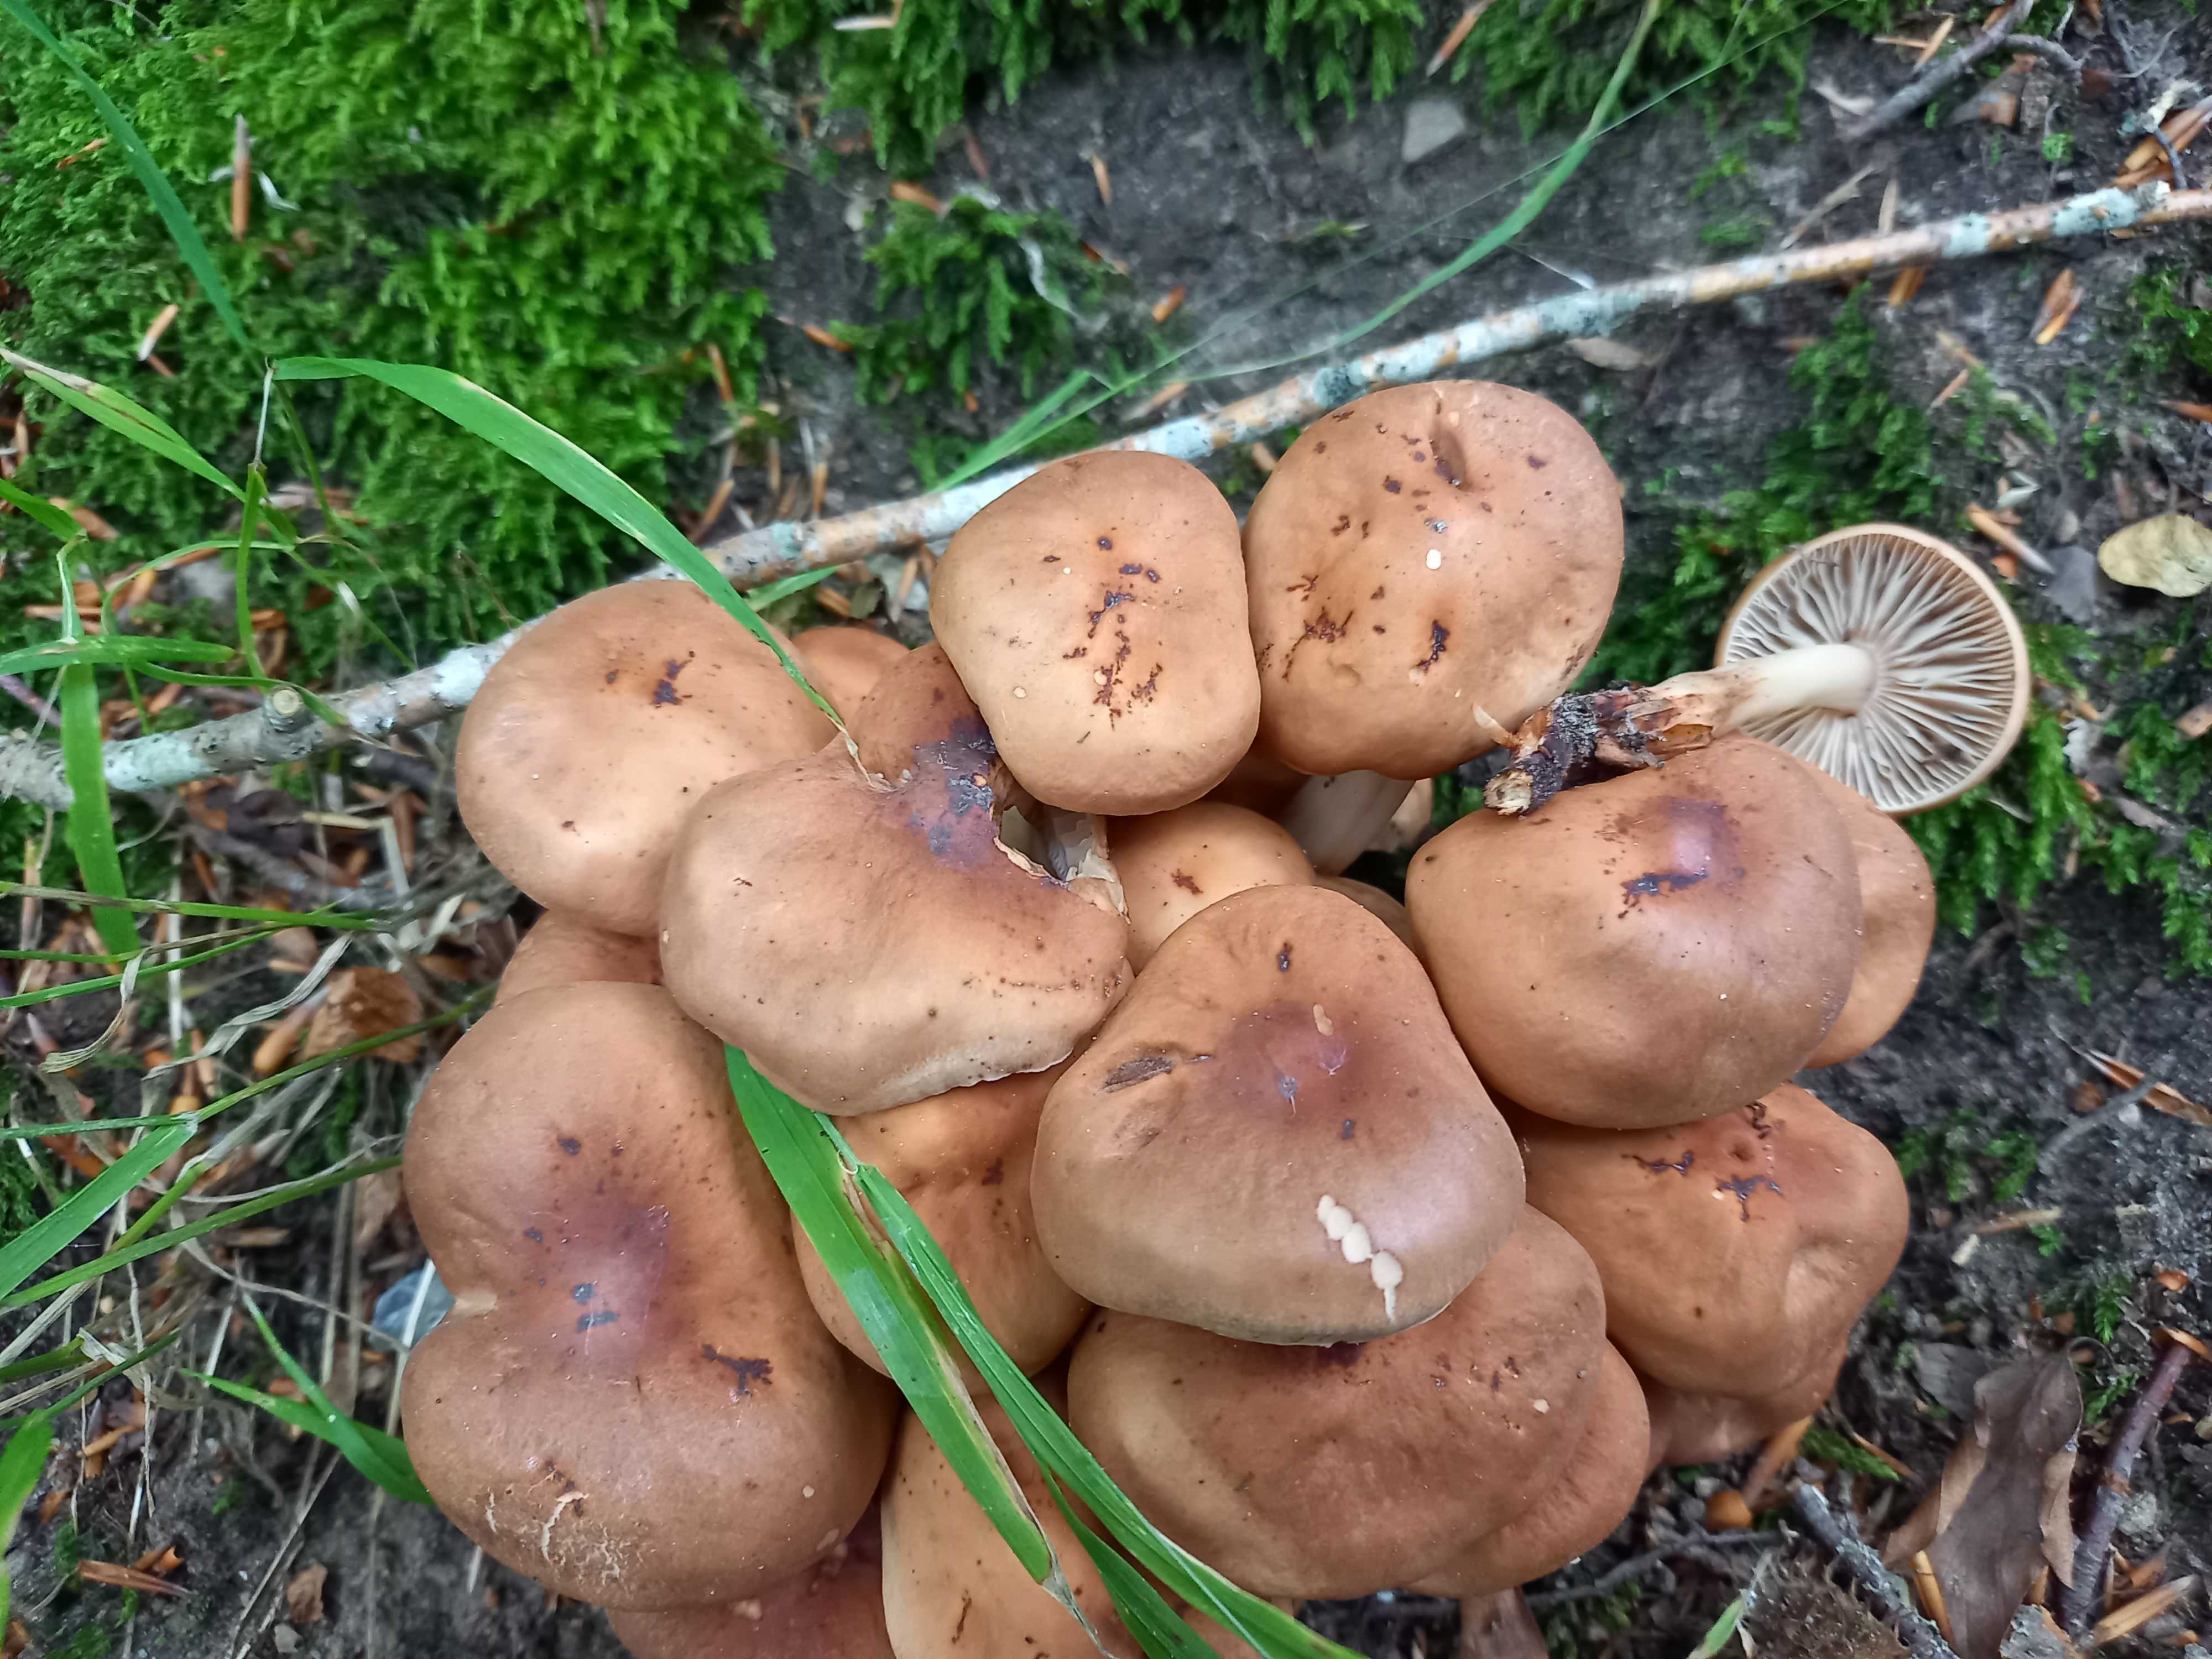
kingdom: Fungi
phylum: Basidiomycota
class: Agaricomycetes
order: Agaricales
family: Omphalotaceae
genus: Gymnopus
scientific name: Gymnopus fusipes
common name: tenstokket fladhat
